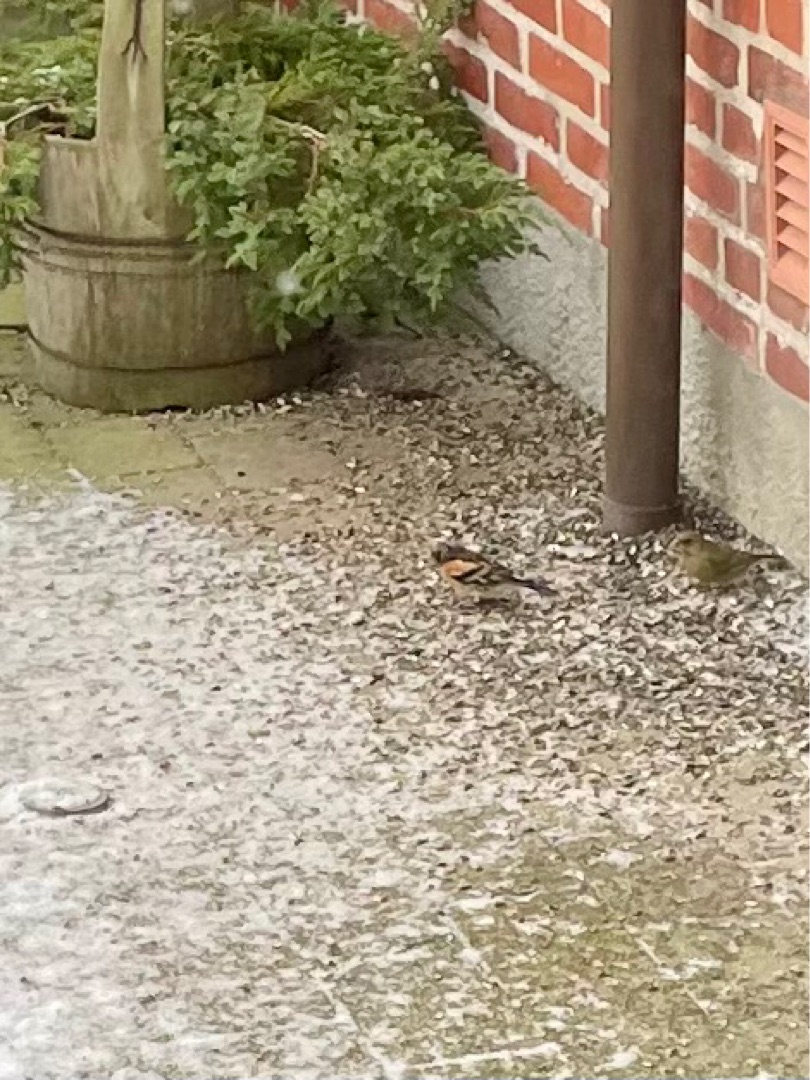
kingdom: Animalia
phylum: Chordata
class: Aves
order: Passeriformes
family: Fringillidae
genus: Fringilla
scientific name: Fringilla montifringilla
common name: Kvækerfinke
